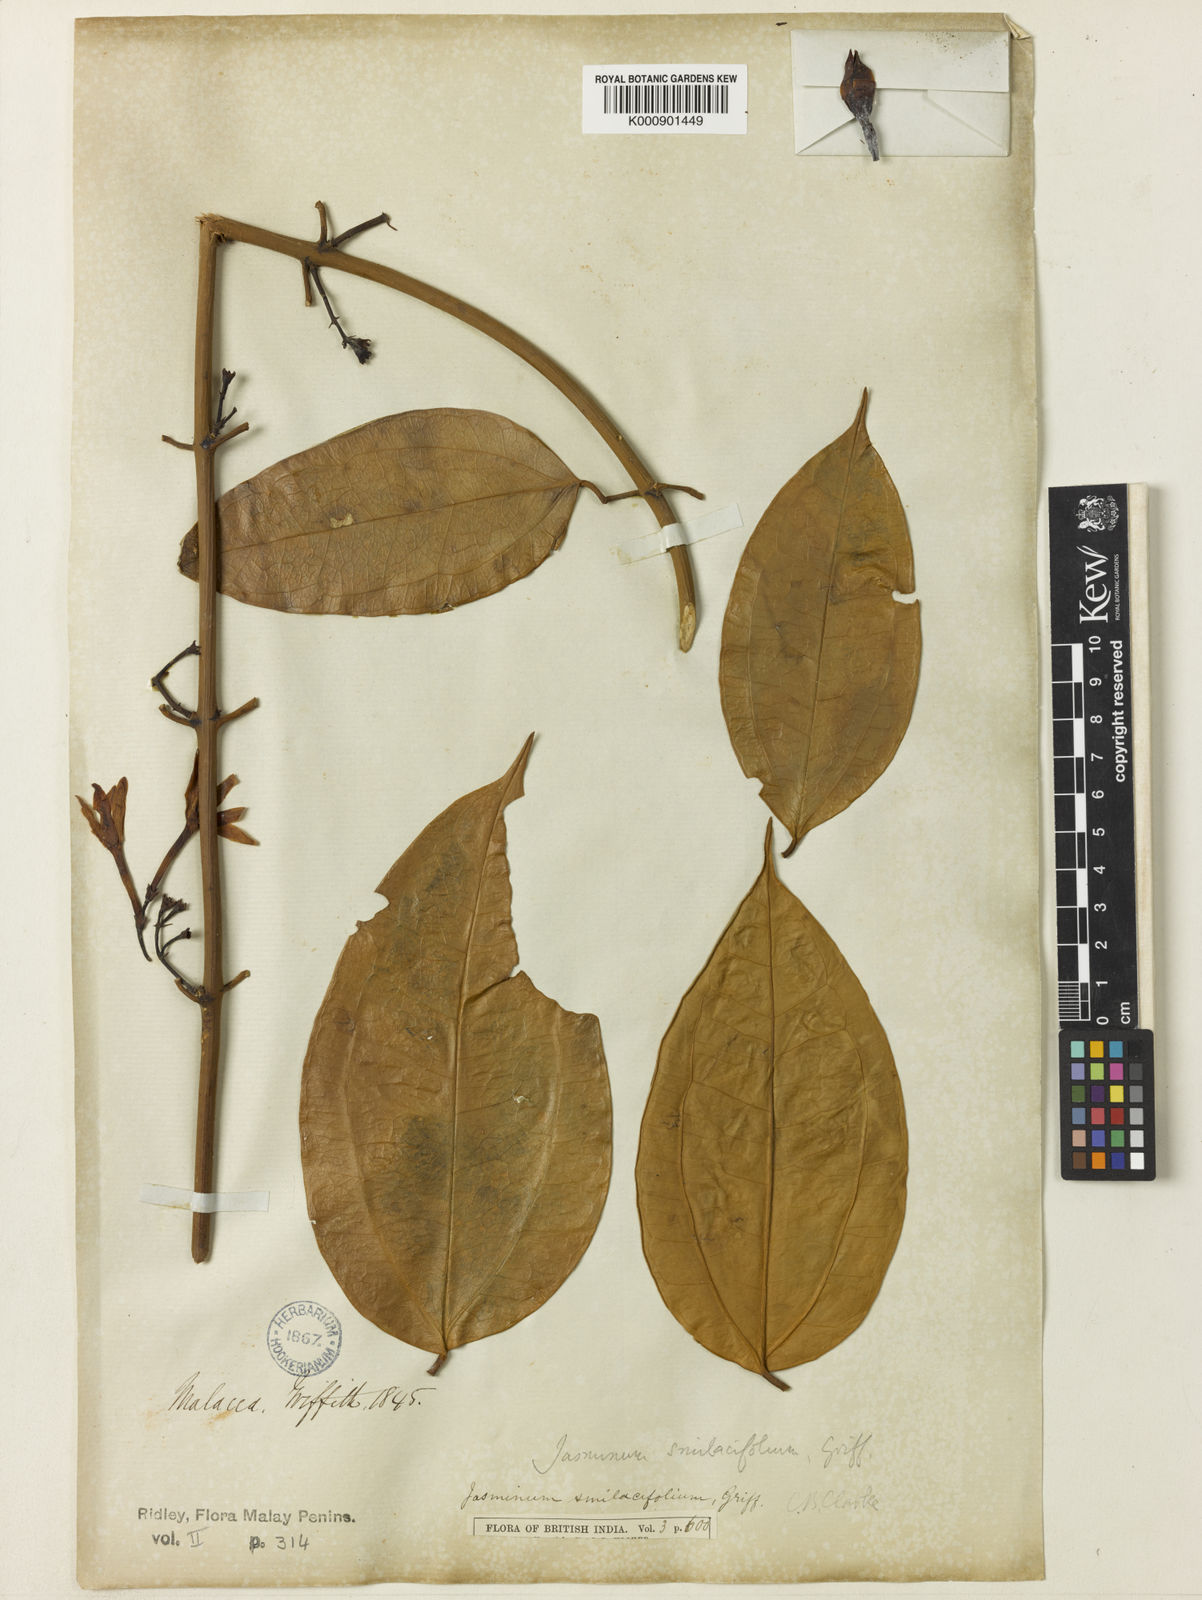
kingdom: Plantae
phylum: Tracheophyta
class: Magnoliopsida
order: Lamiales
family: Oleaceae
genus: Jasminum
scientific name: Jasminum smilacifolium
